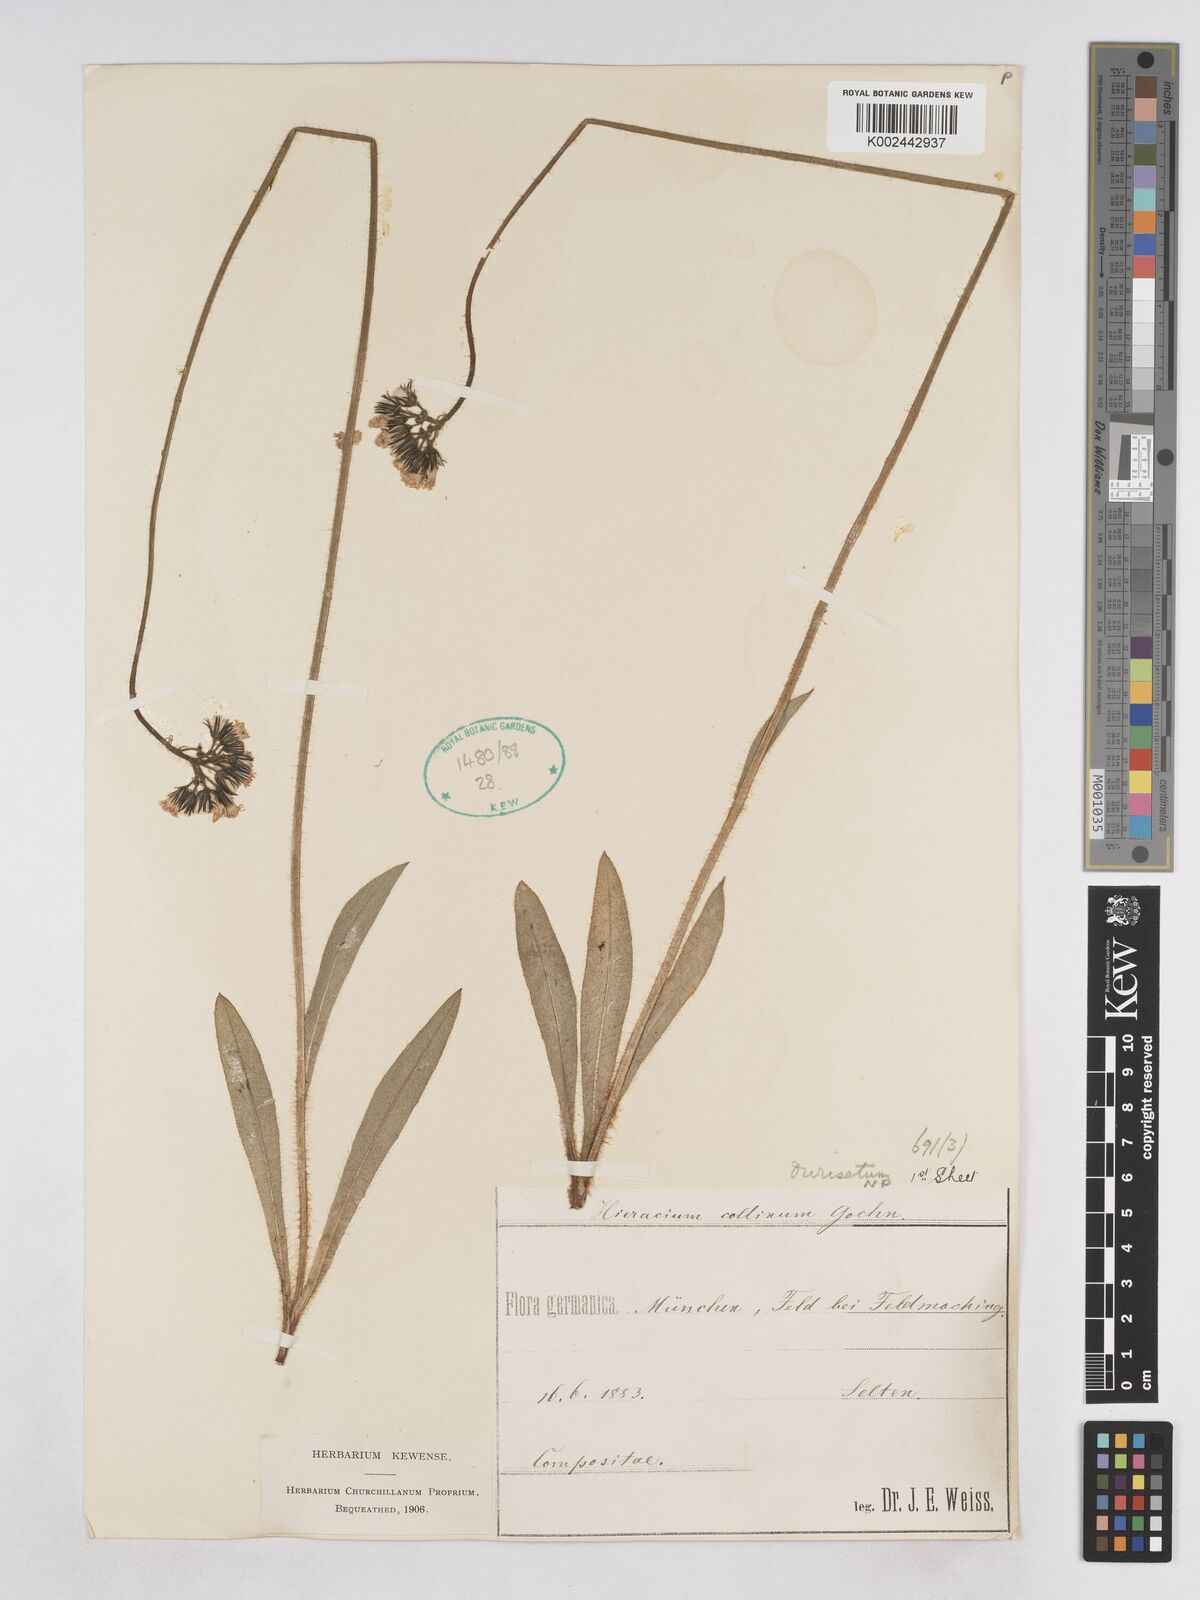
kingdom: Plantae
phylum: Tracheophyta
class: Magnoliopsida
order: Asterales
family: Asteraceae
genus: Pilosella
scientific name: Pilosella cymosiformis
